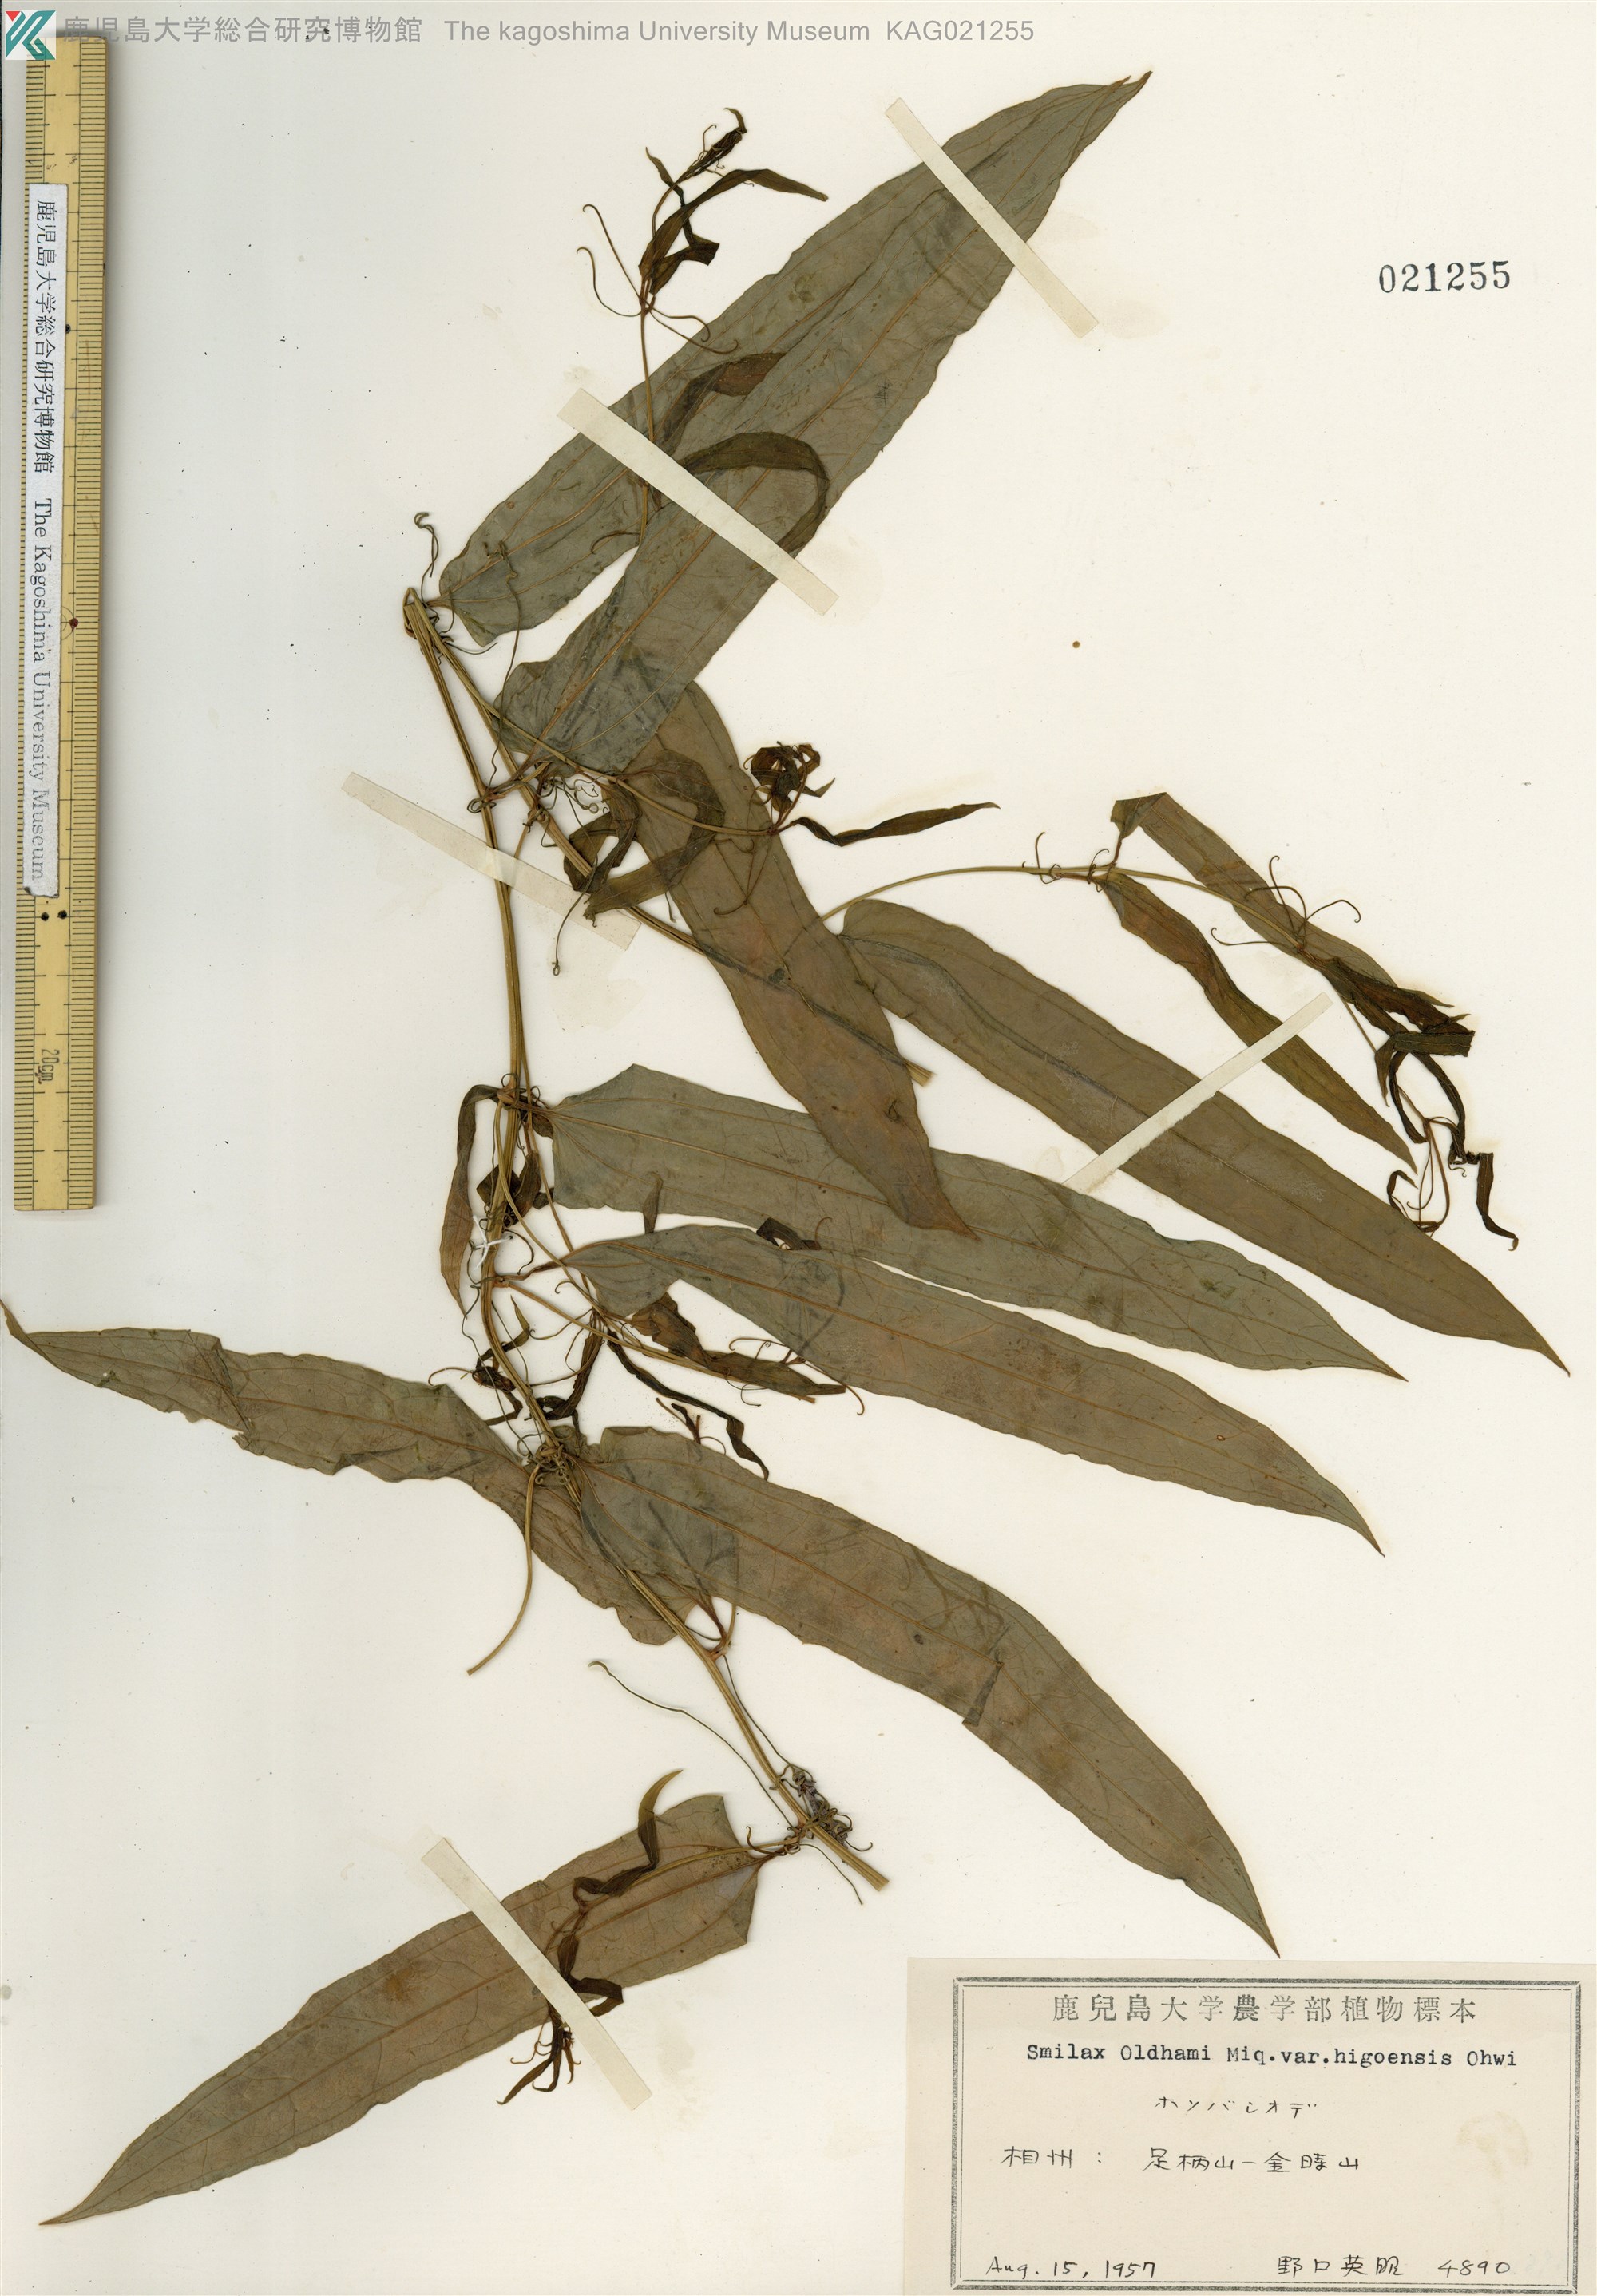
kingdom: Plantae
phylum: Tracheophyta
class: Liliopsida
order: Liliales
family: Smilacaceae
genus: Smilax
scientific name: Smilax riparia
